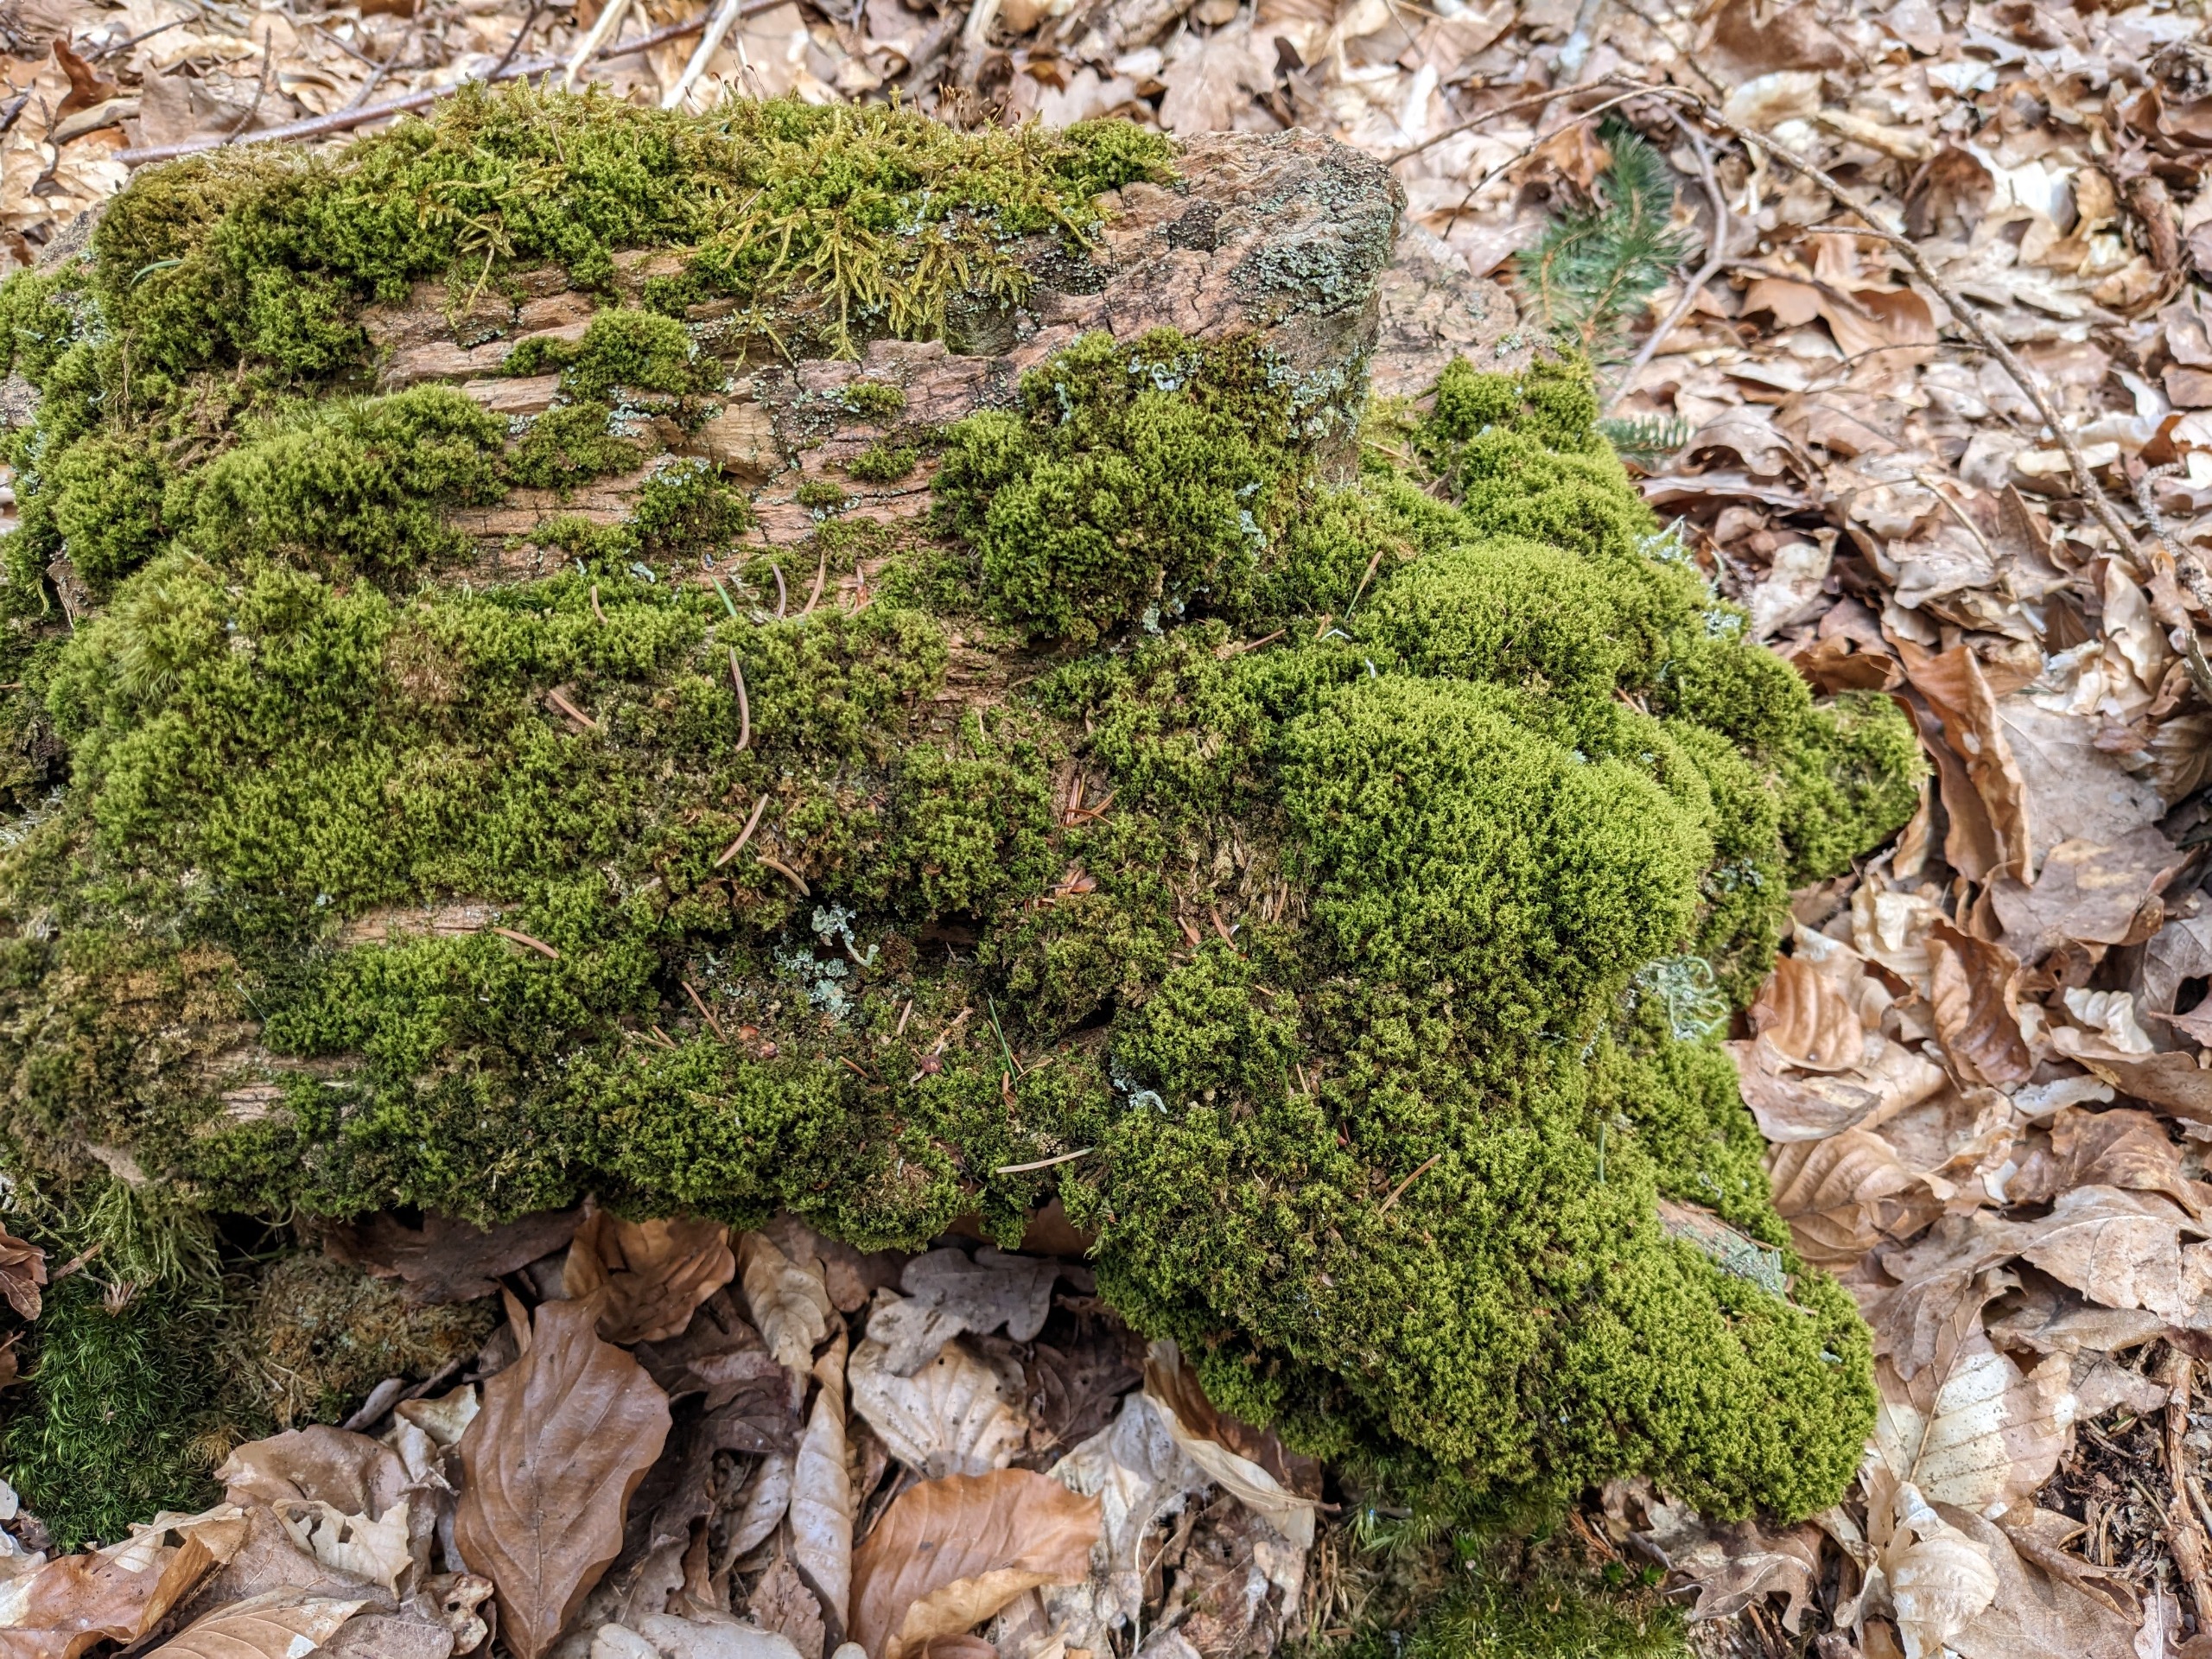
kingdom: Plantae
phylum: Bryophyta
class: Bryopsida
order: Dicranales
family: Dicranaceae
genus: Orthodicranum
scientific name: Orthodicranum montanum
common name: Tæt tyndvinge
